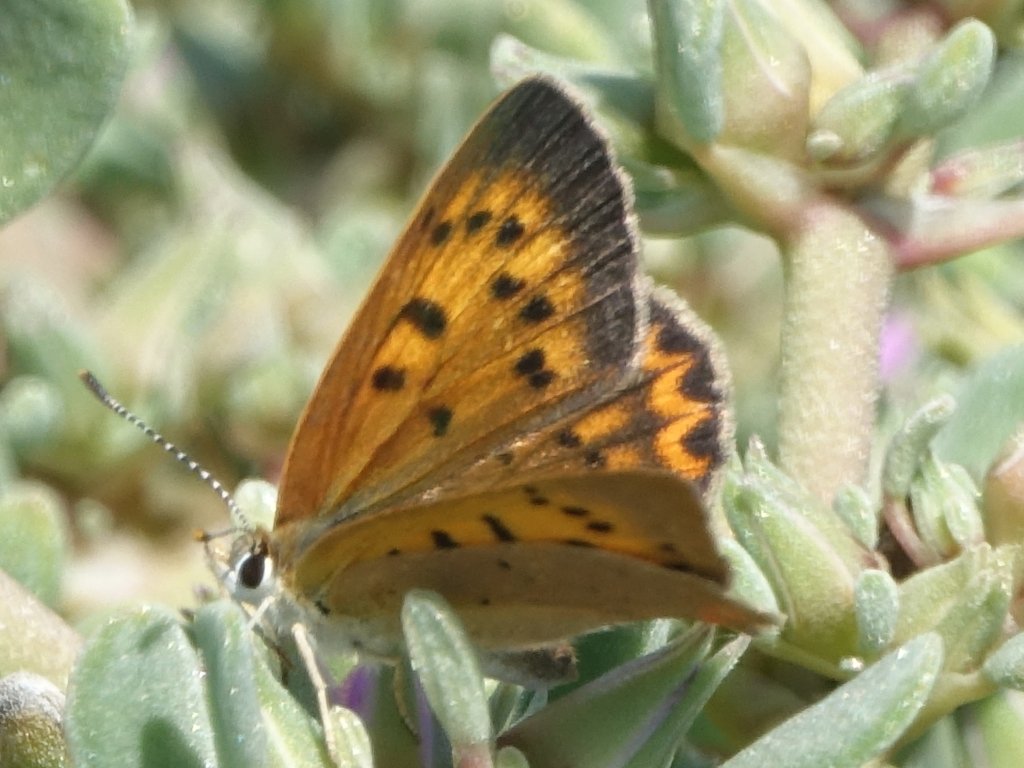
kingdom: Animalia
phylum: Arthropoda
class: Insecta
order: Lepidoptera
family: Sesiidae
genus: Sesia
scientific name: Sesia Lycaena helloides
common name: Purplish Copper
